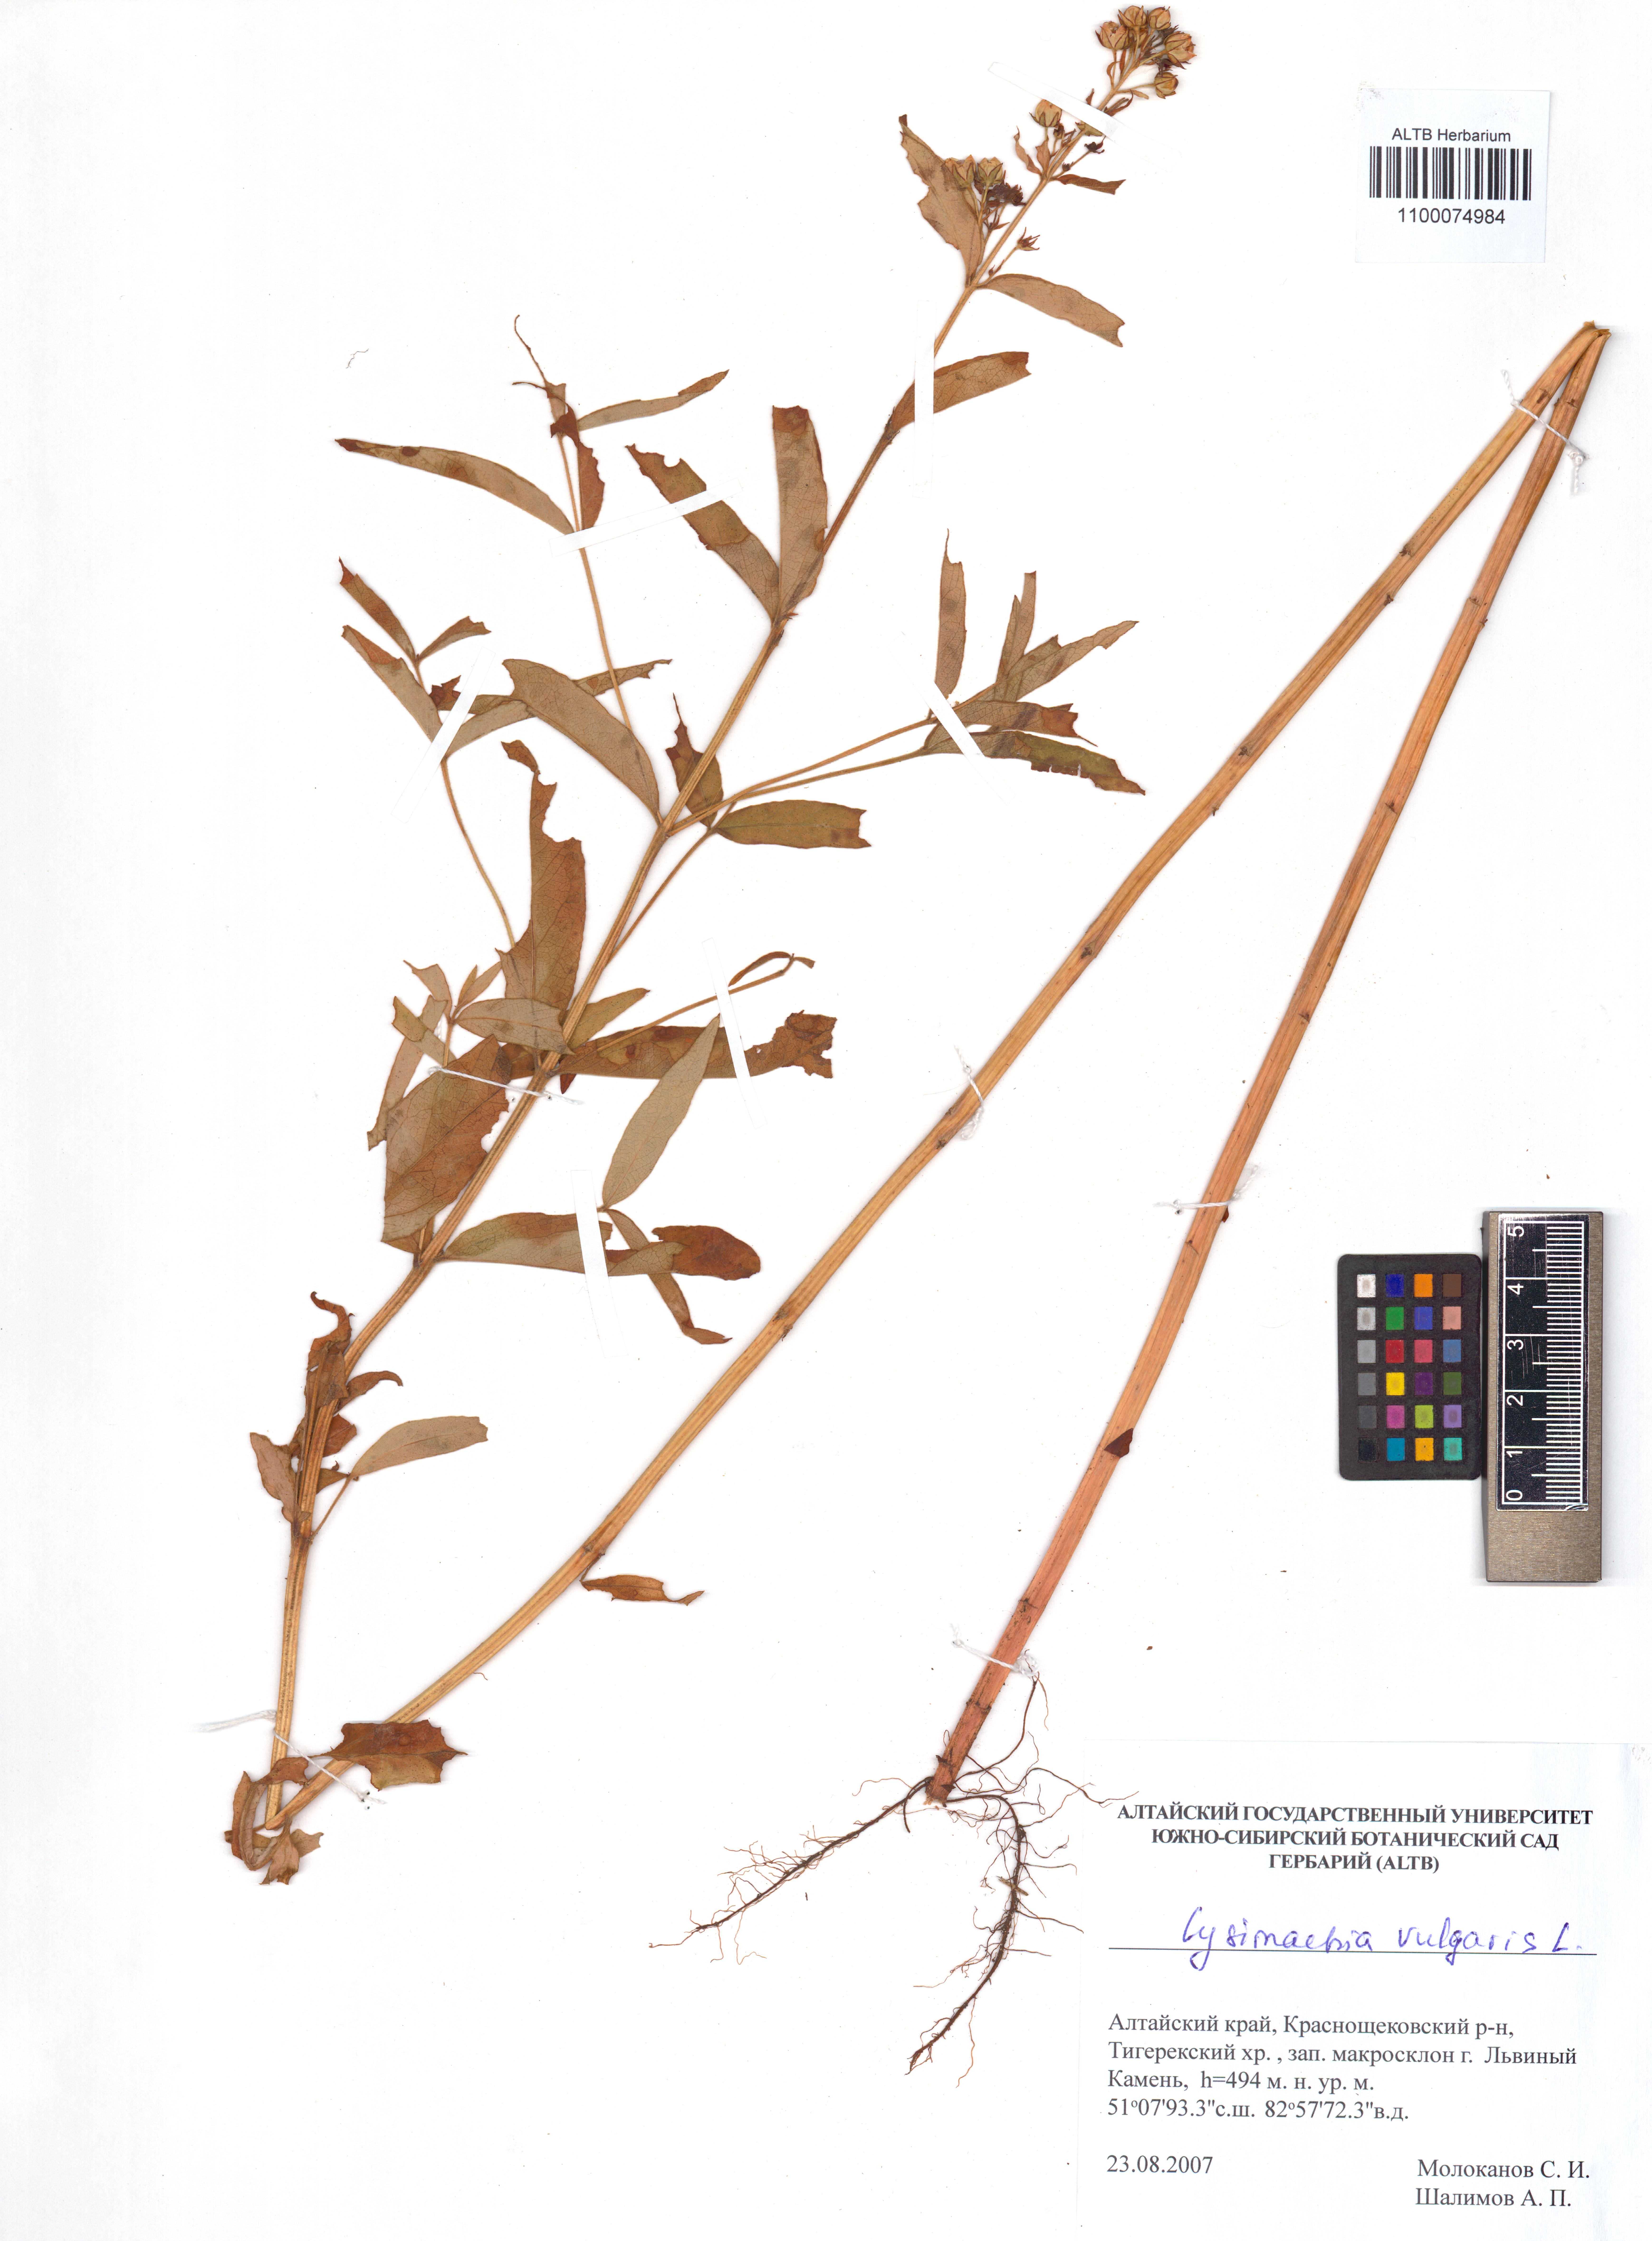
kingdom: Plantae
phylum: Tracheophyta
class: Magnoliopsida
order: Ericales
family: Primulaceae
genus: Lysimachia
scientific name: Lysimachia vulgaris
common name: Yellow loosestrife
